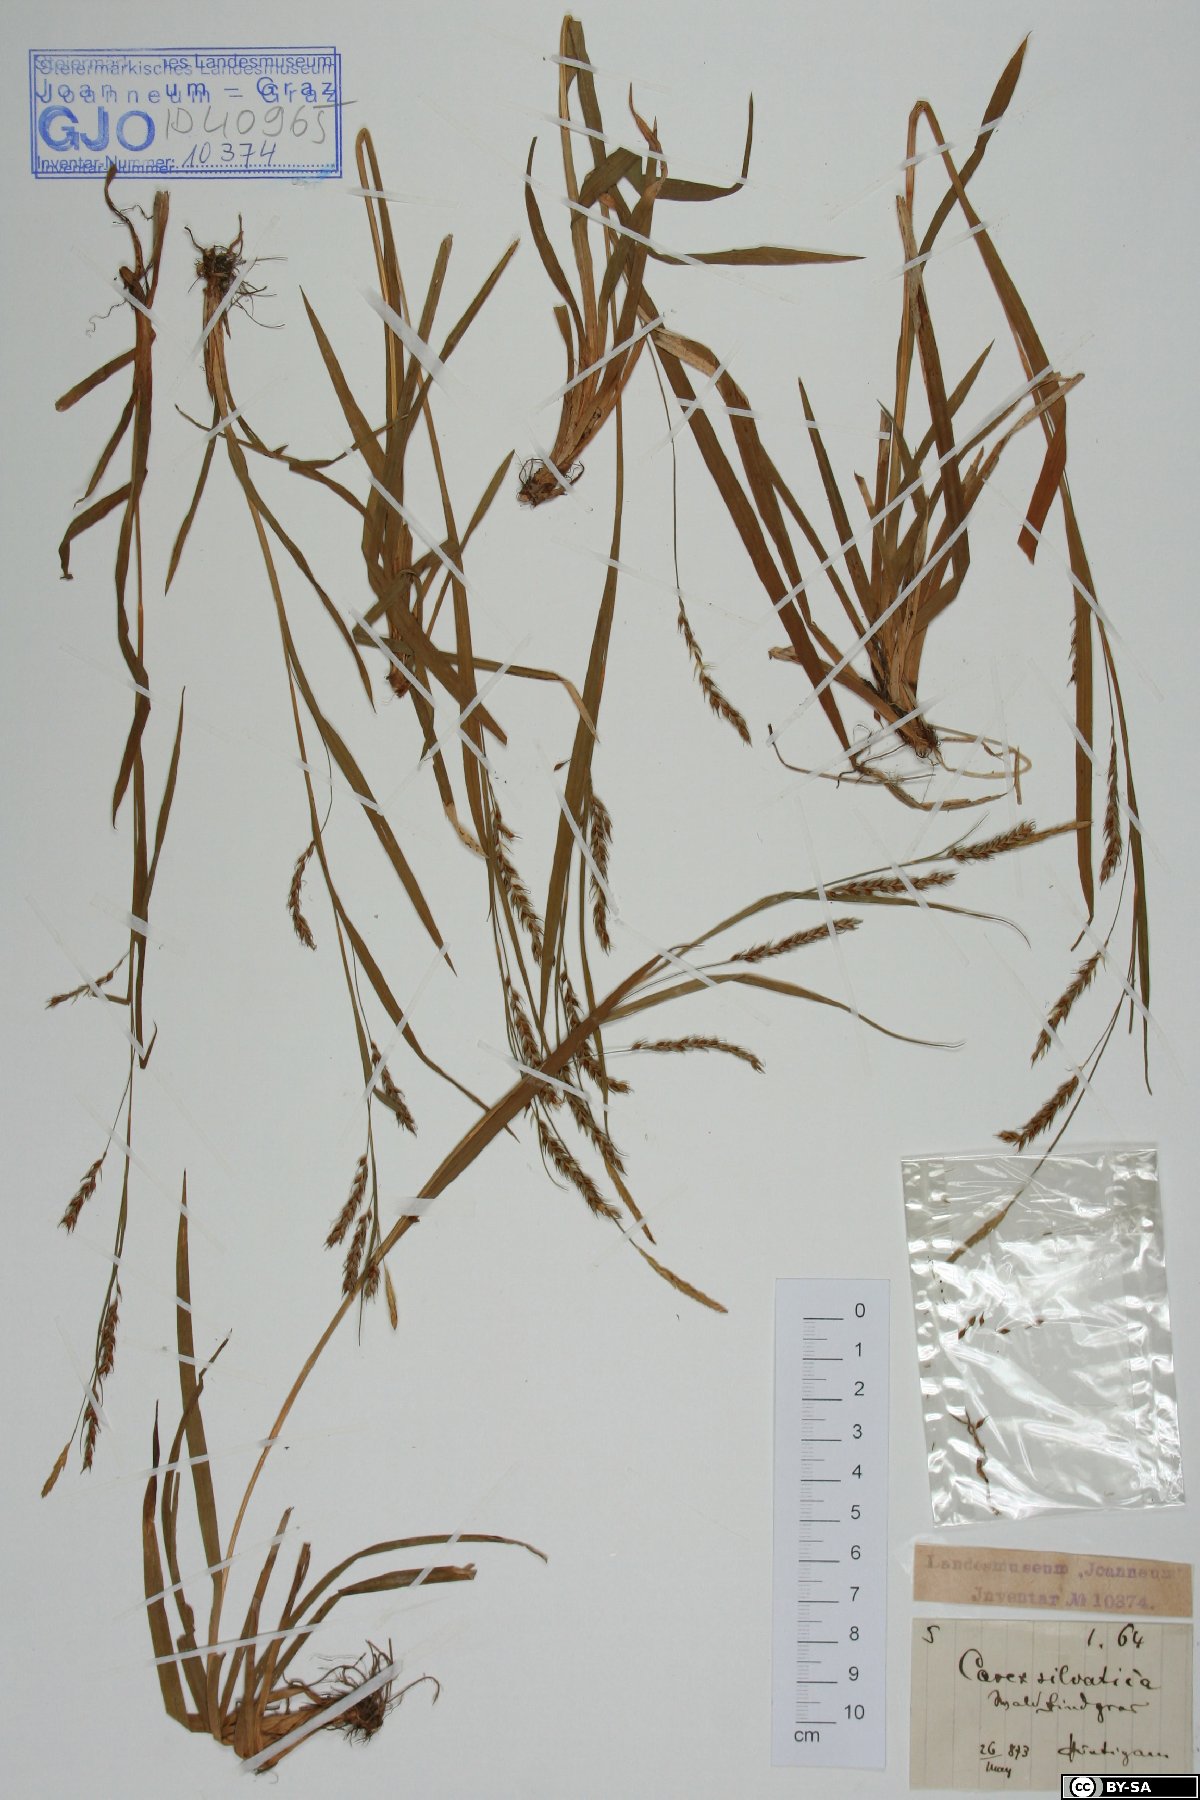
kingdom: Plantae
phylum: Tracheophyta
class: Liliopsida
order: Poales
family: Cyperaceae
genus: Carex
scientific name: Carex sylvatica
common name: Wood-sedge
